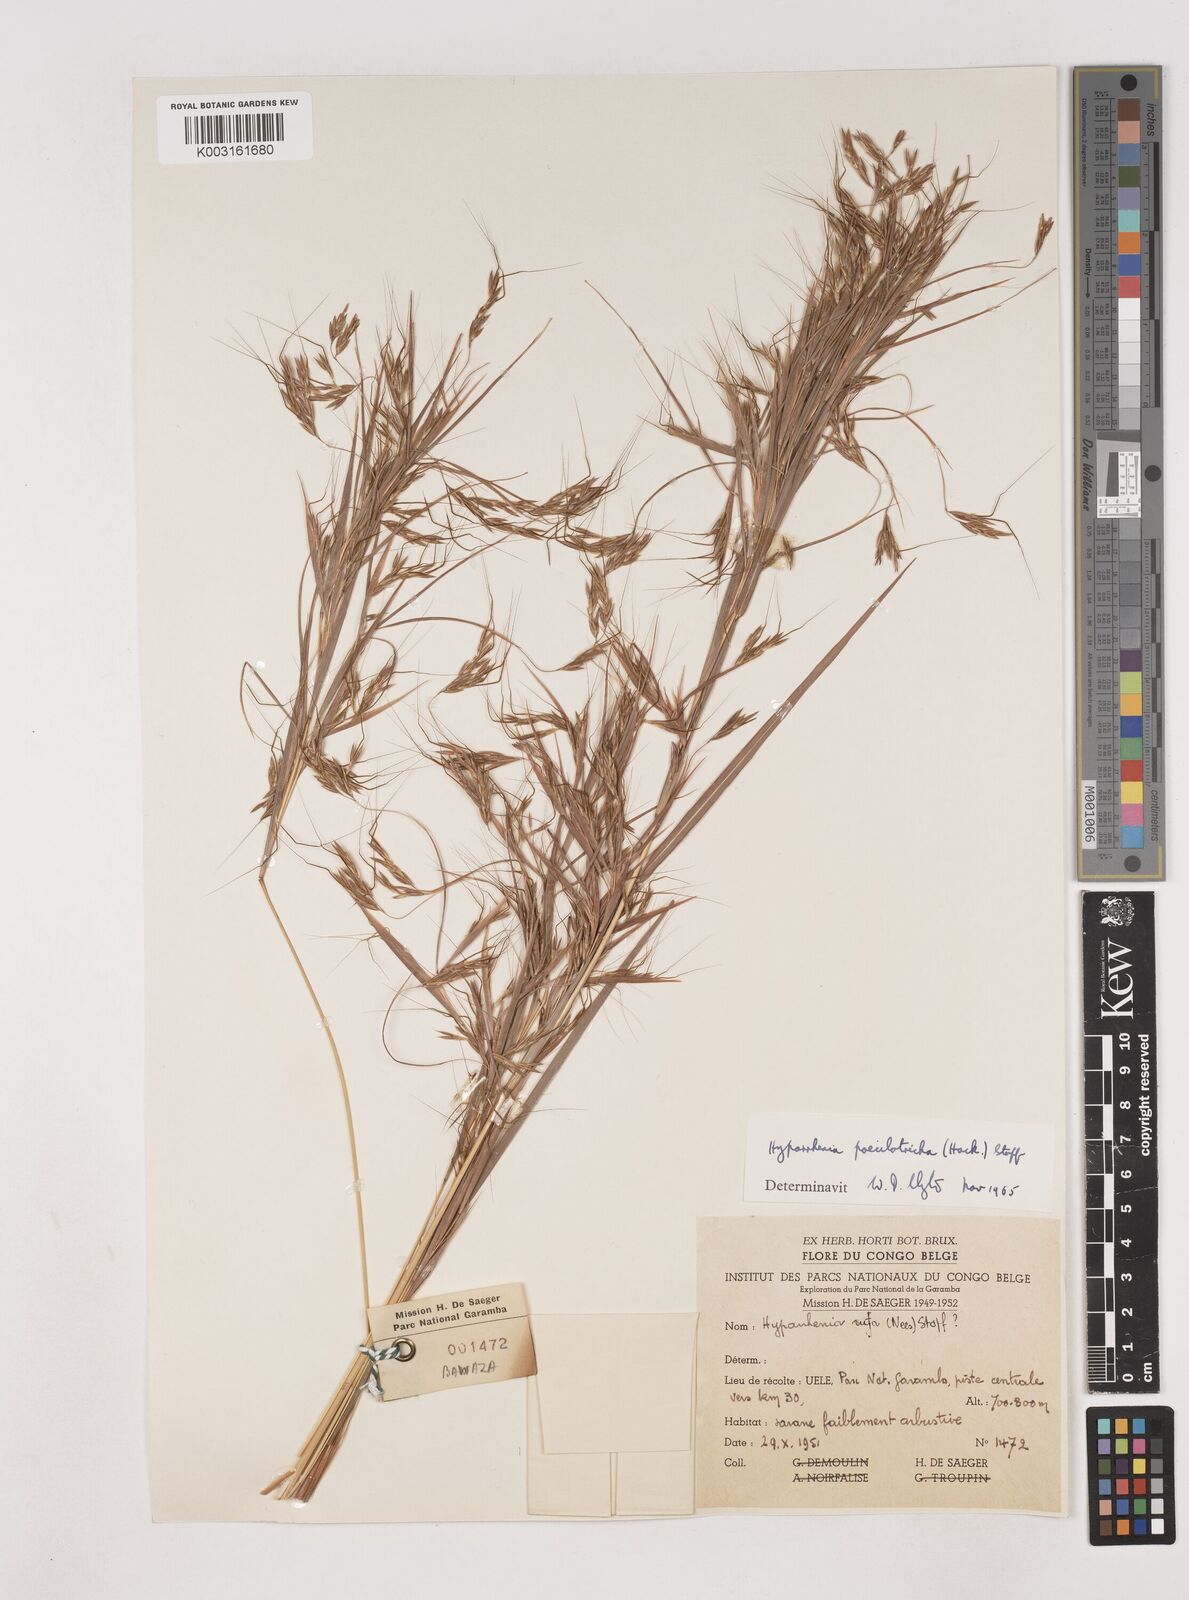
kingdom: Plantae
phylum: Tracheophyta
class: Liliopsida
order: Poales
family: Poaceae
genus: Hyparrhenia
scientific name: Hyparrhenia poecilotricha
